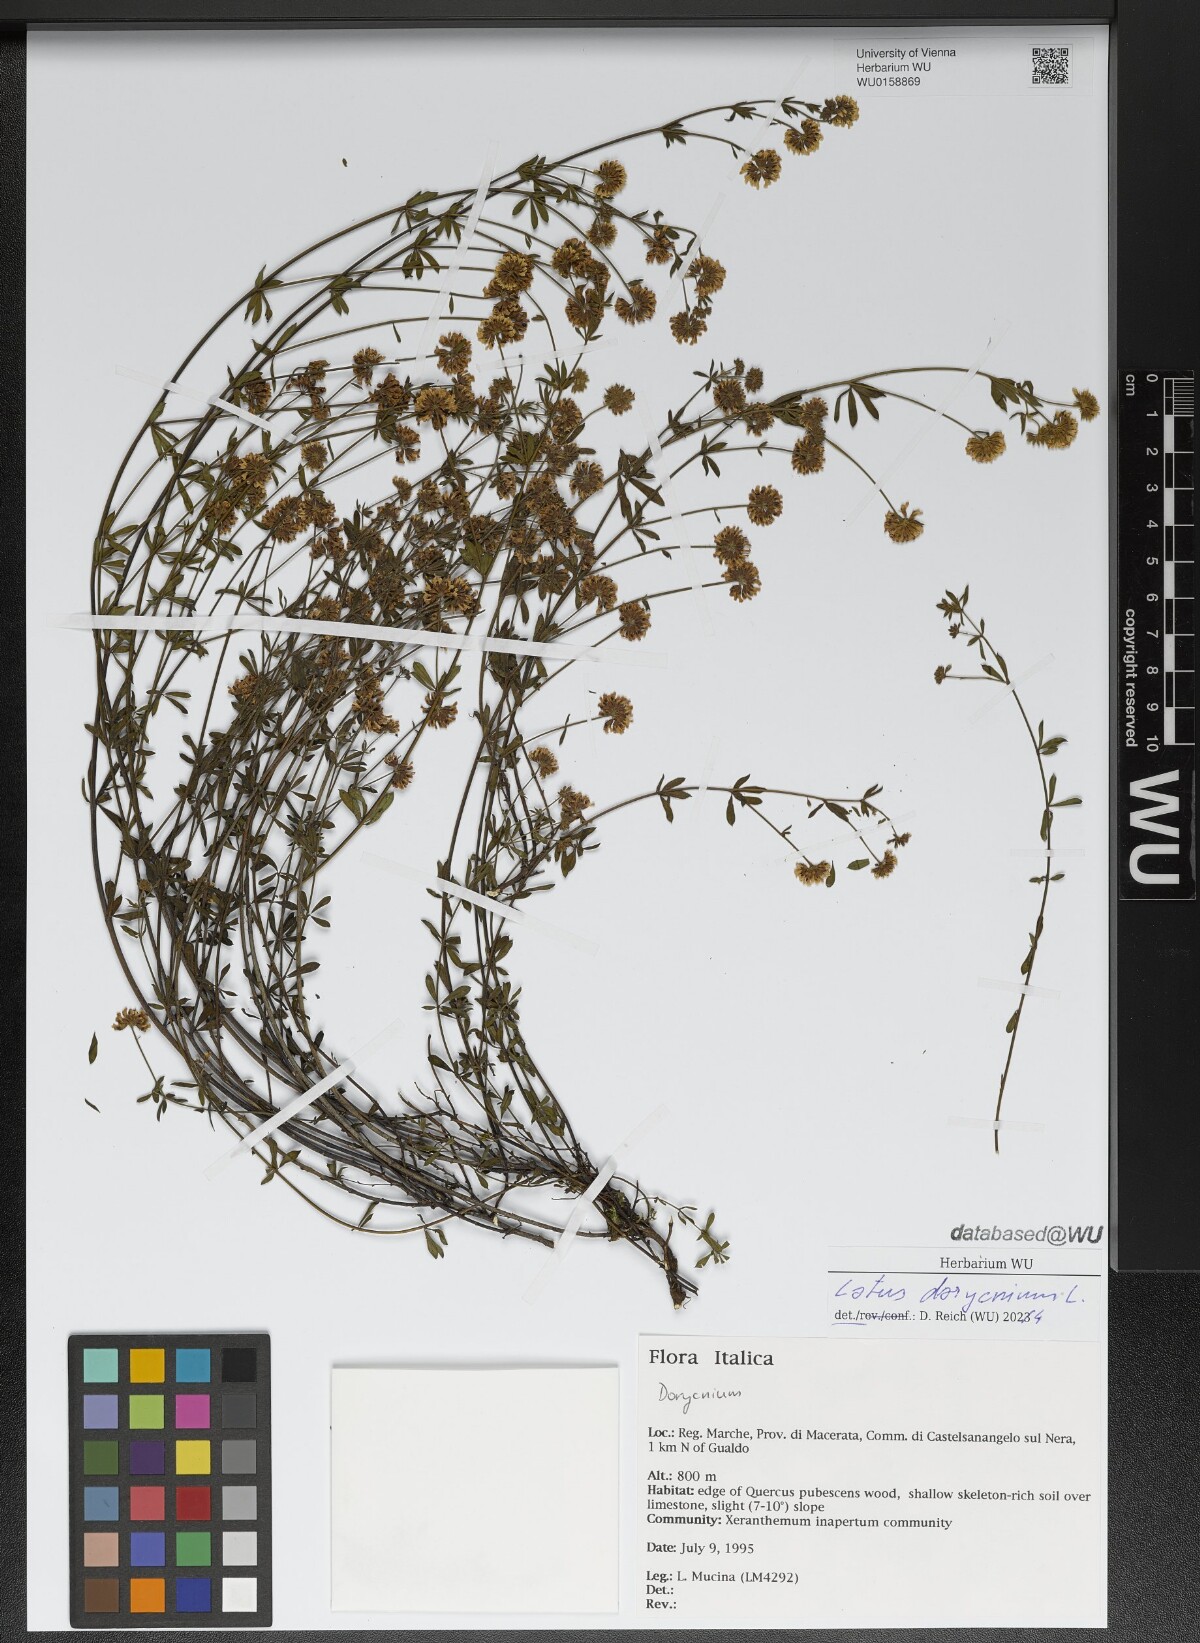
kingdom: Plantae
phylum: Tracheophyta
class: Magnoliopsida
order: Fabales
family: Fabaceae
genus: Lotus
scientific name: Lotus dorycnium
